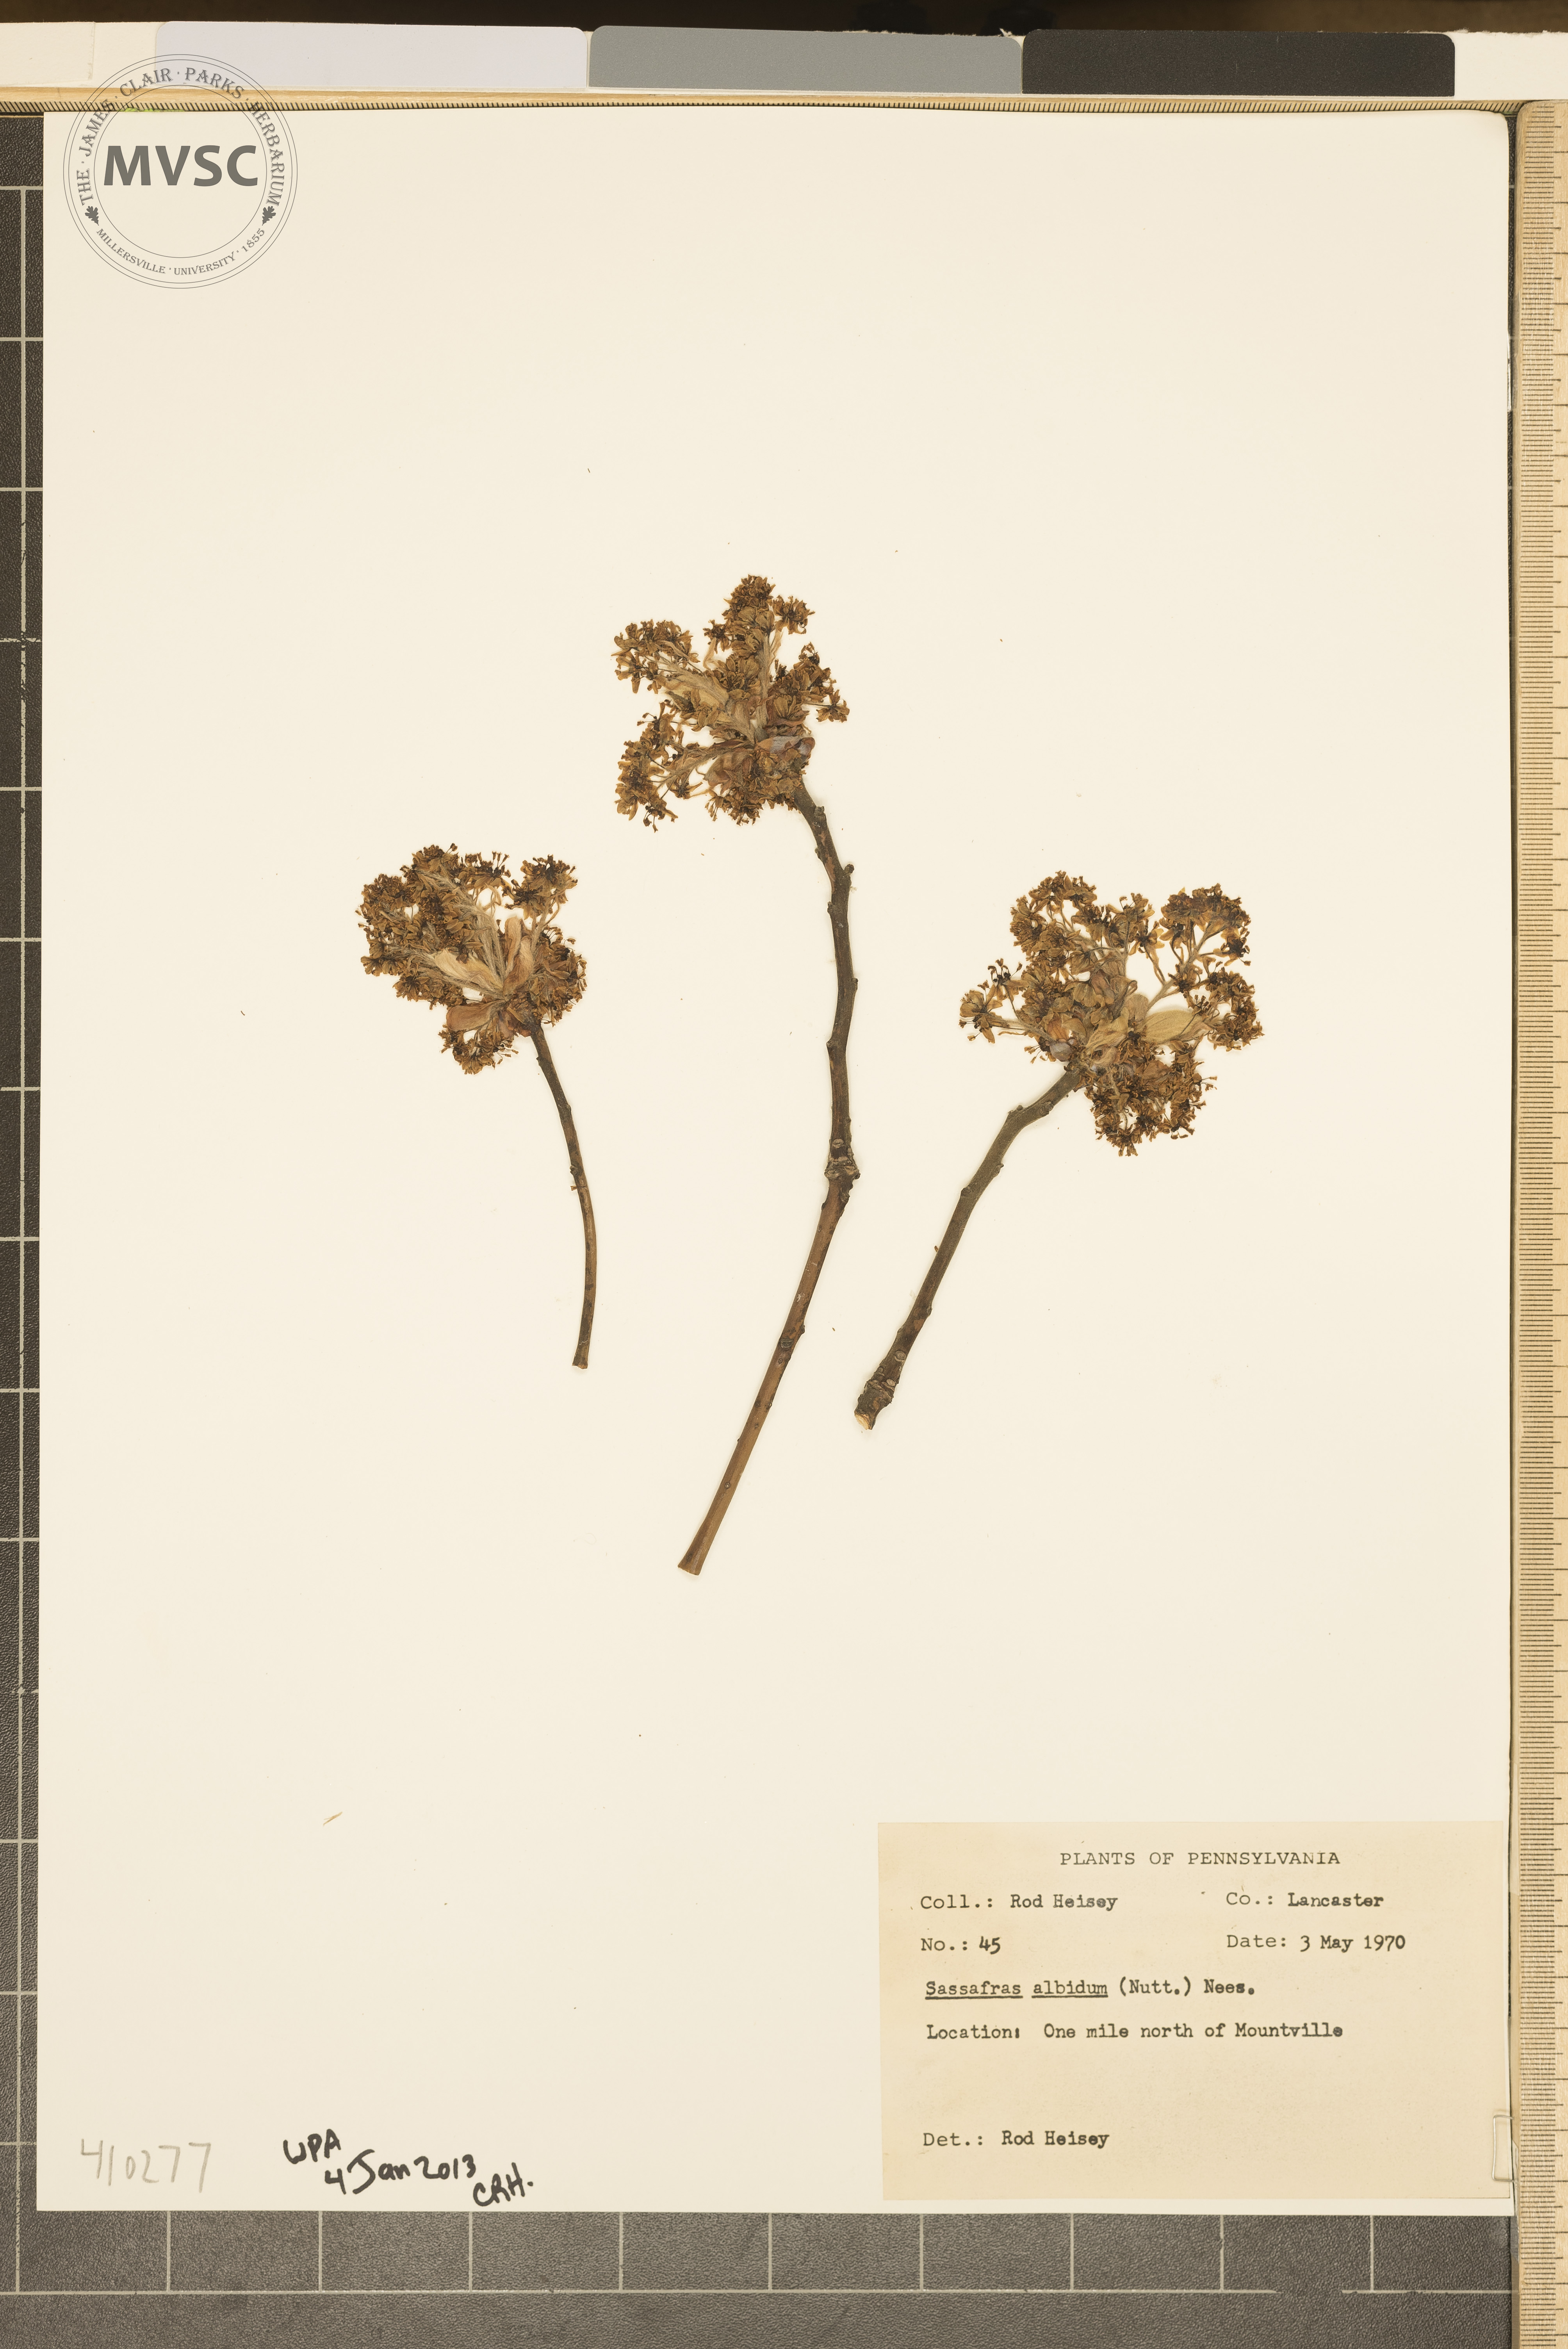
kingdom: Plantae
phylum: Tracheophyta
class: Magnoliopsida
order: Laurales
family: Lauraceae
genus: Sassafras
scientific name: Sassafras albidum
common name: Sassafras
